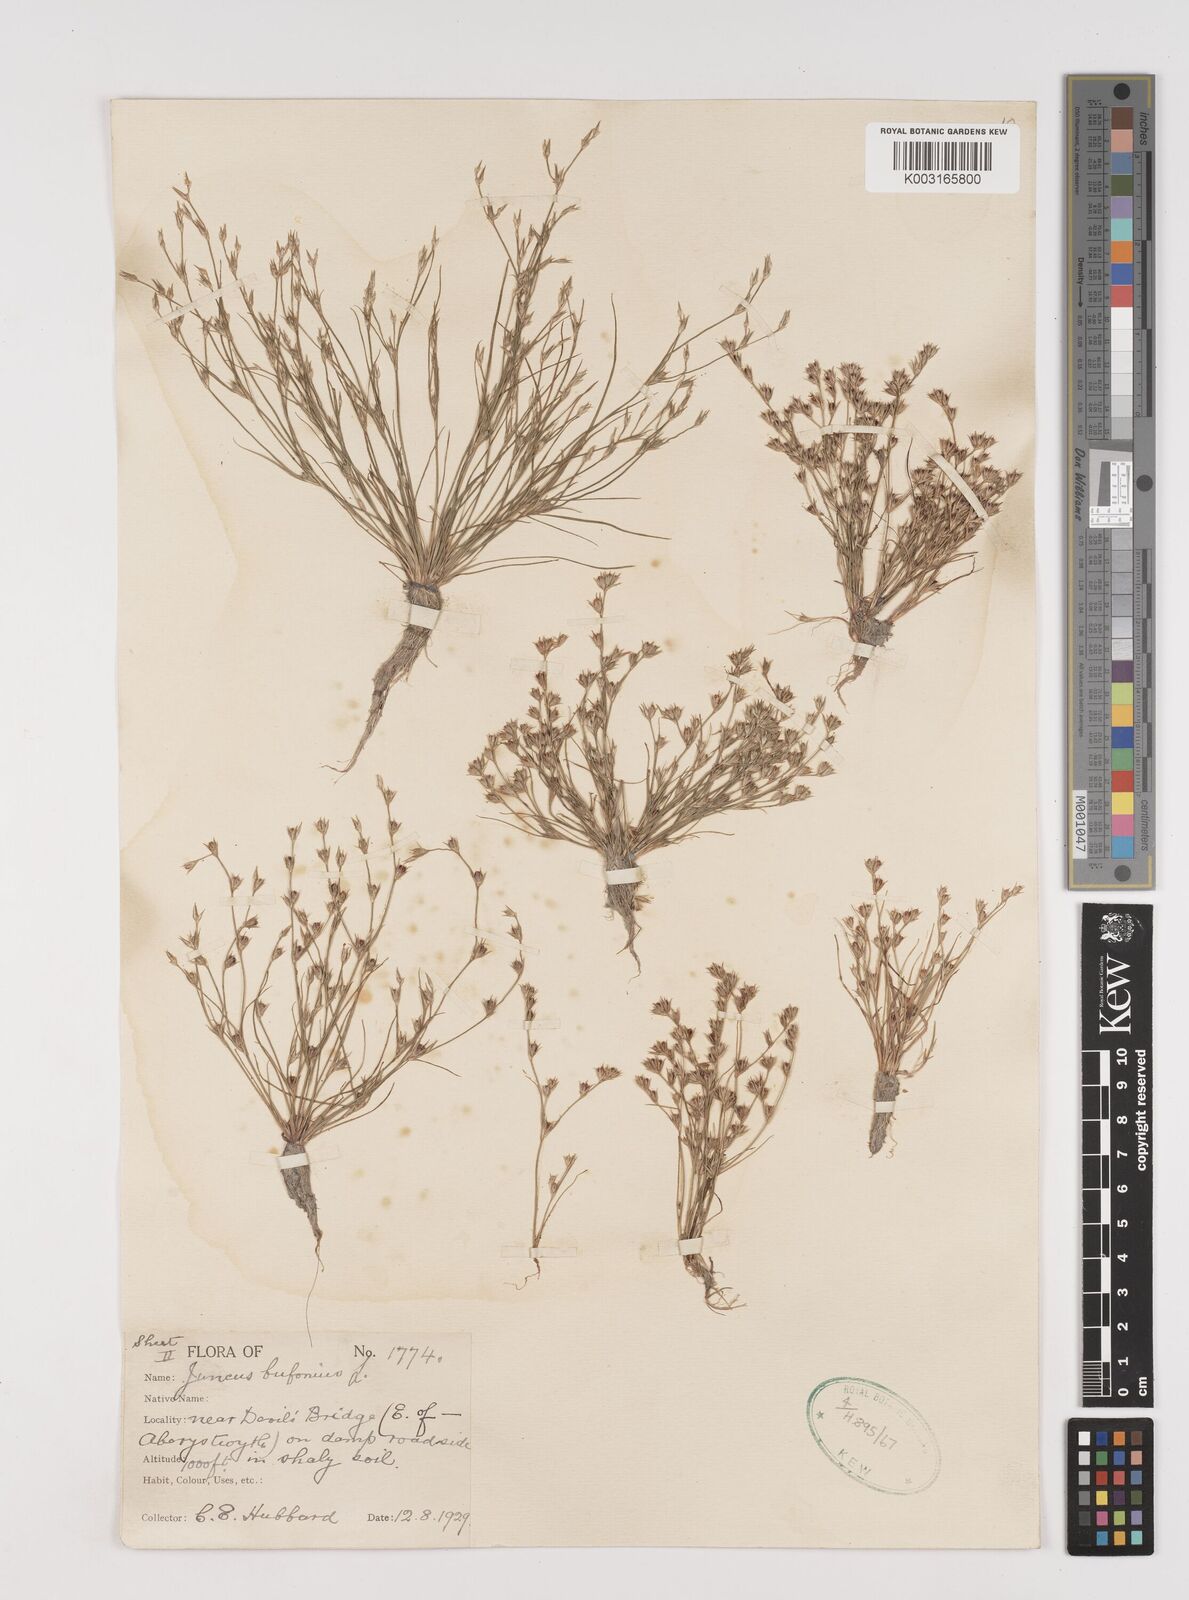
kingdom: Plantae
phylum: Tracheophyta
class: Liliopsida
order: Poales
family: Juncaceae
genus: Juncus
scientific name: Juncus bufonius
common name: Toad rush
